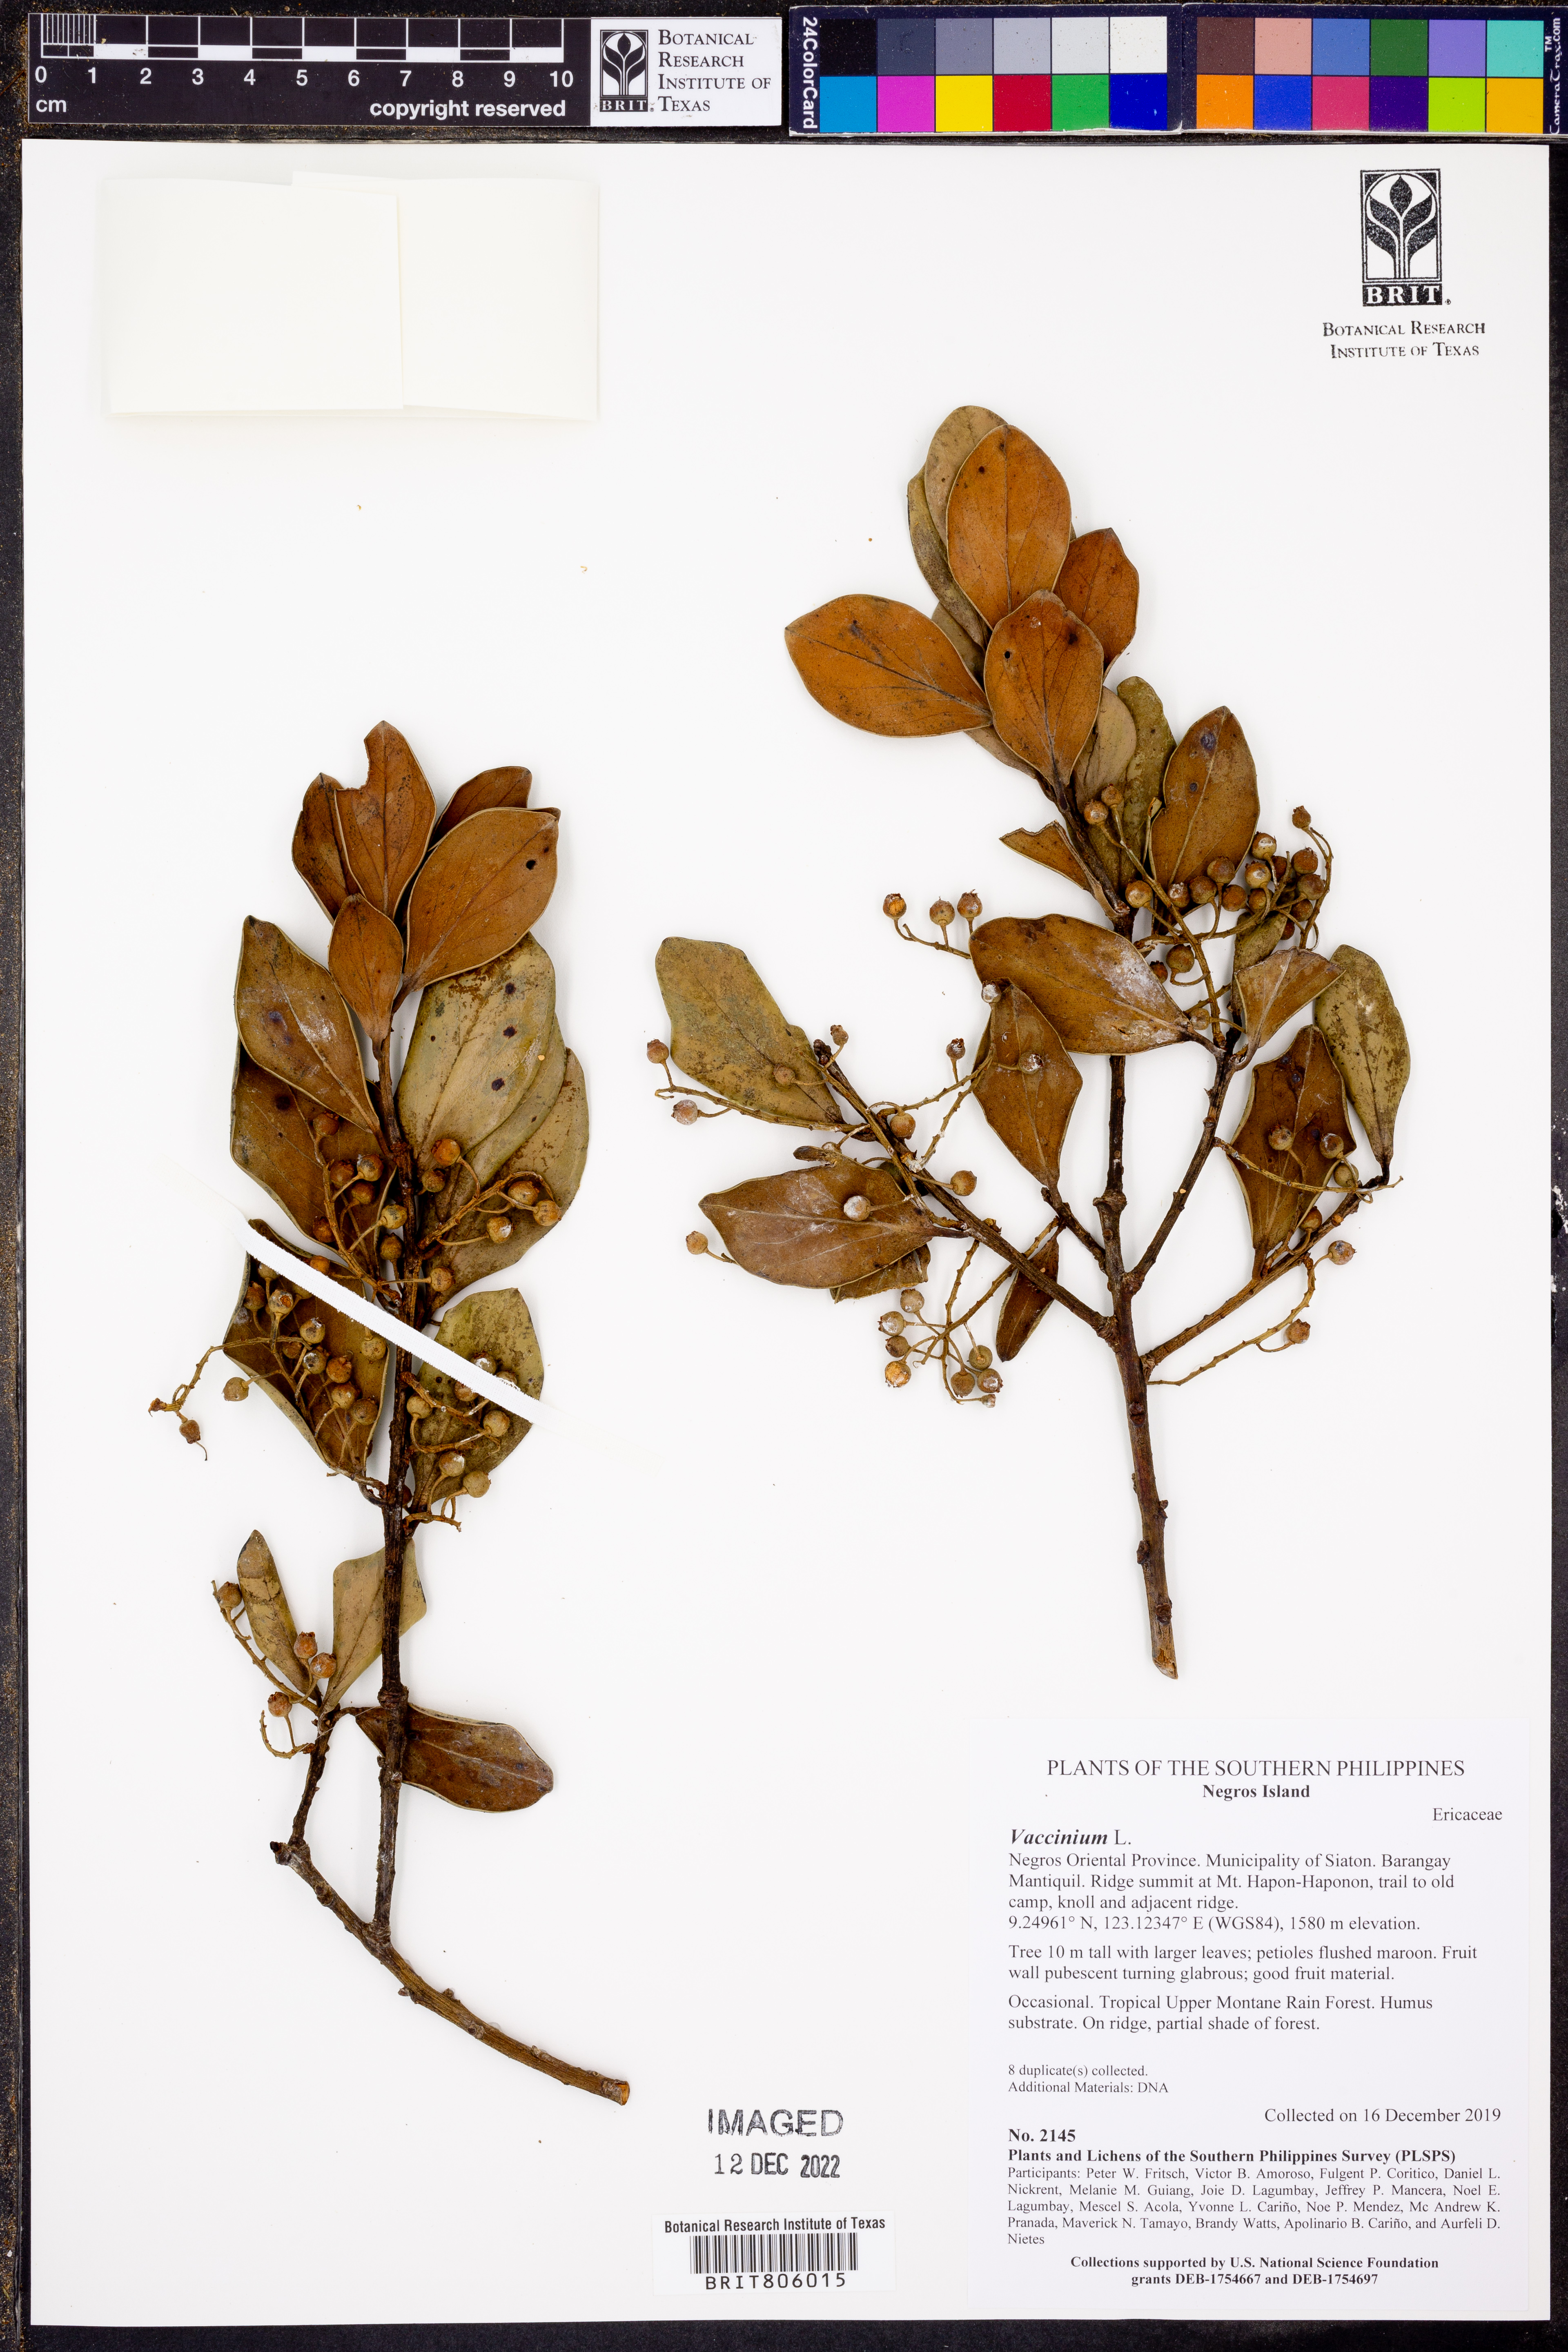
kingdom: Plantae
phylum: Tracheophyta
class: Magnoliopsida
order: Ericales
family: Ericaceae
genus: Vaccinium
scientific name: Vaccinium
